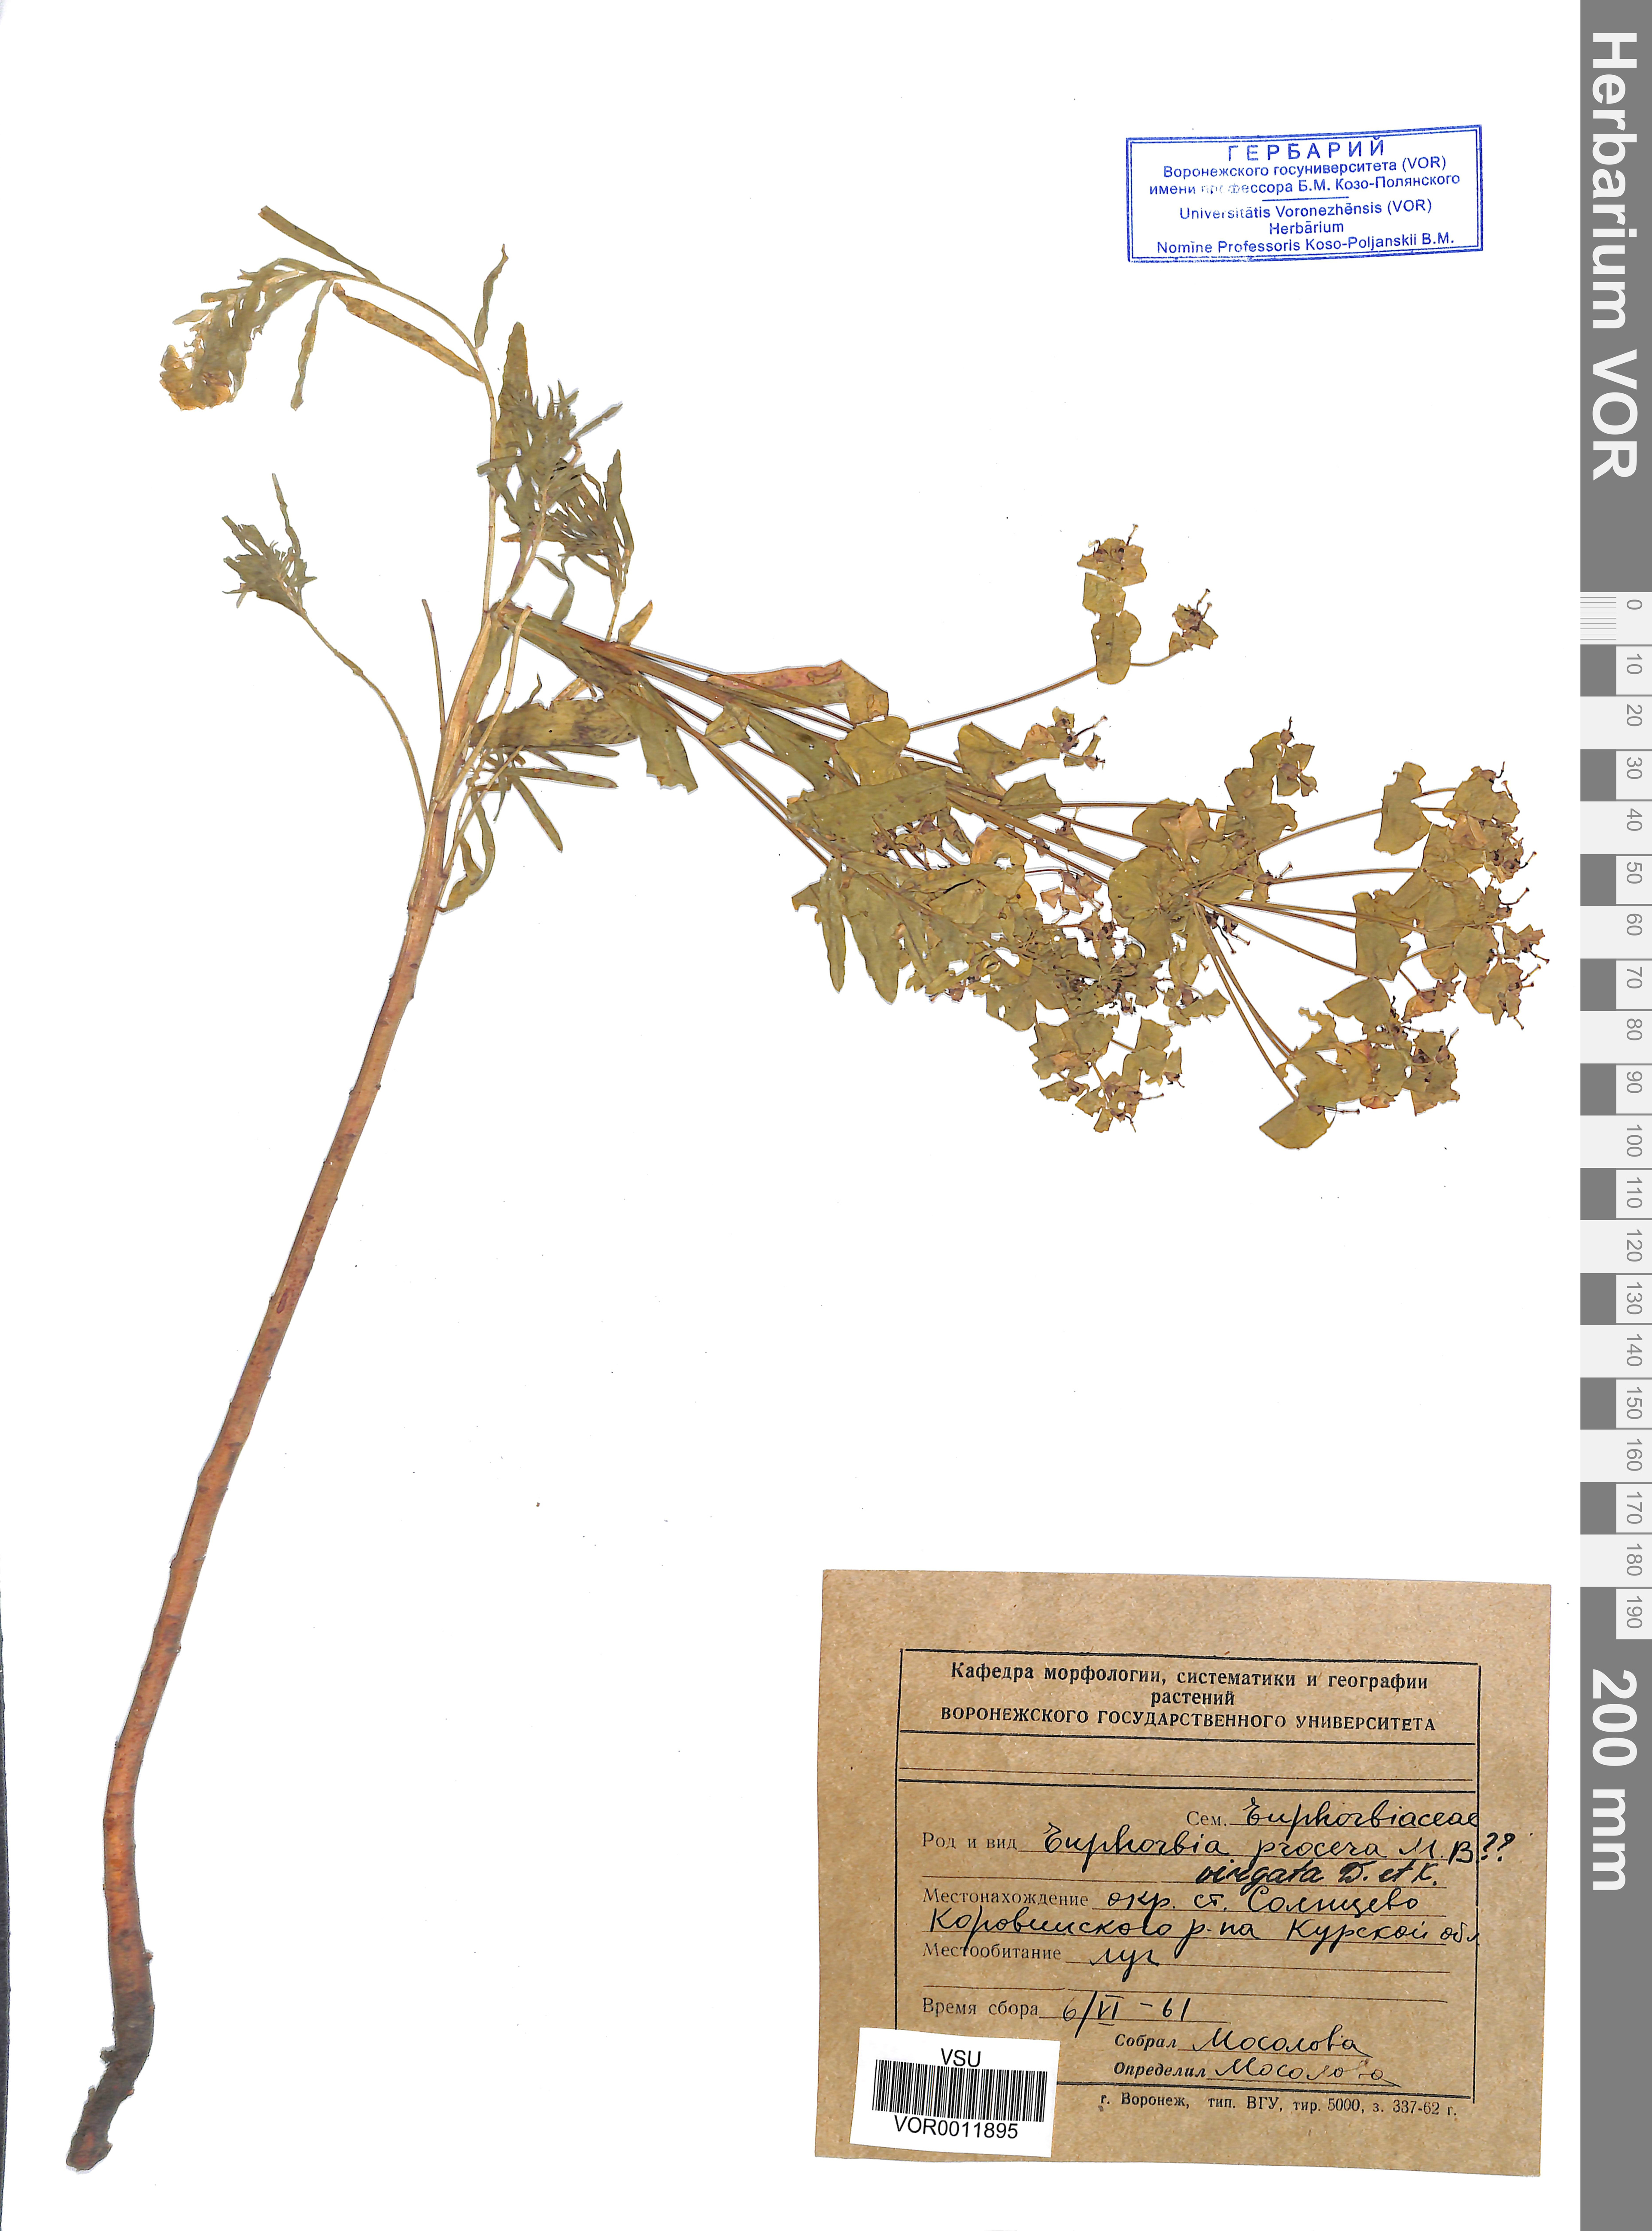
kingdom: Plantae
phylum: Tracheophyta
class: Magnoliopsida
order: Malpighiales
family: Euphorbiaceae
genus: Euphorbia
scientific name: Euphorbia virgata
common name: Leafy spurge
